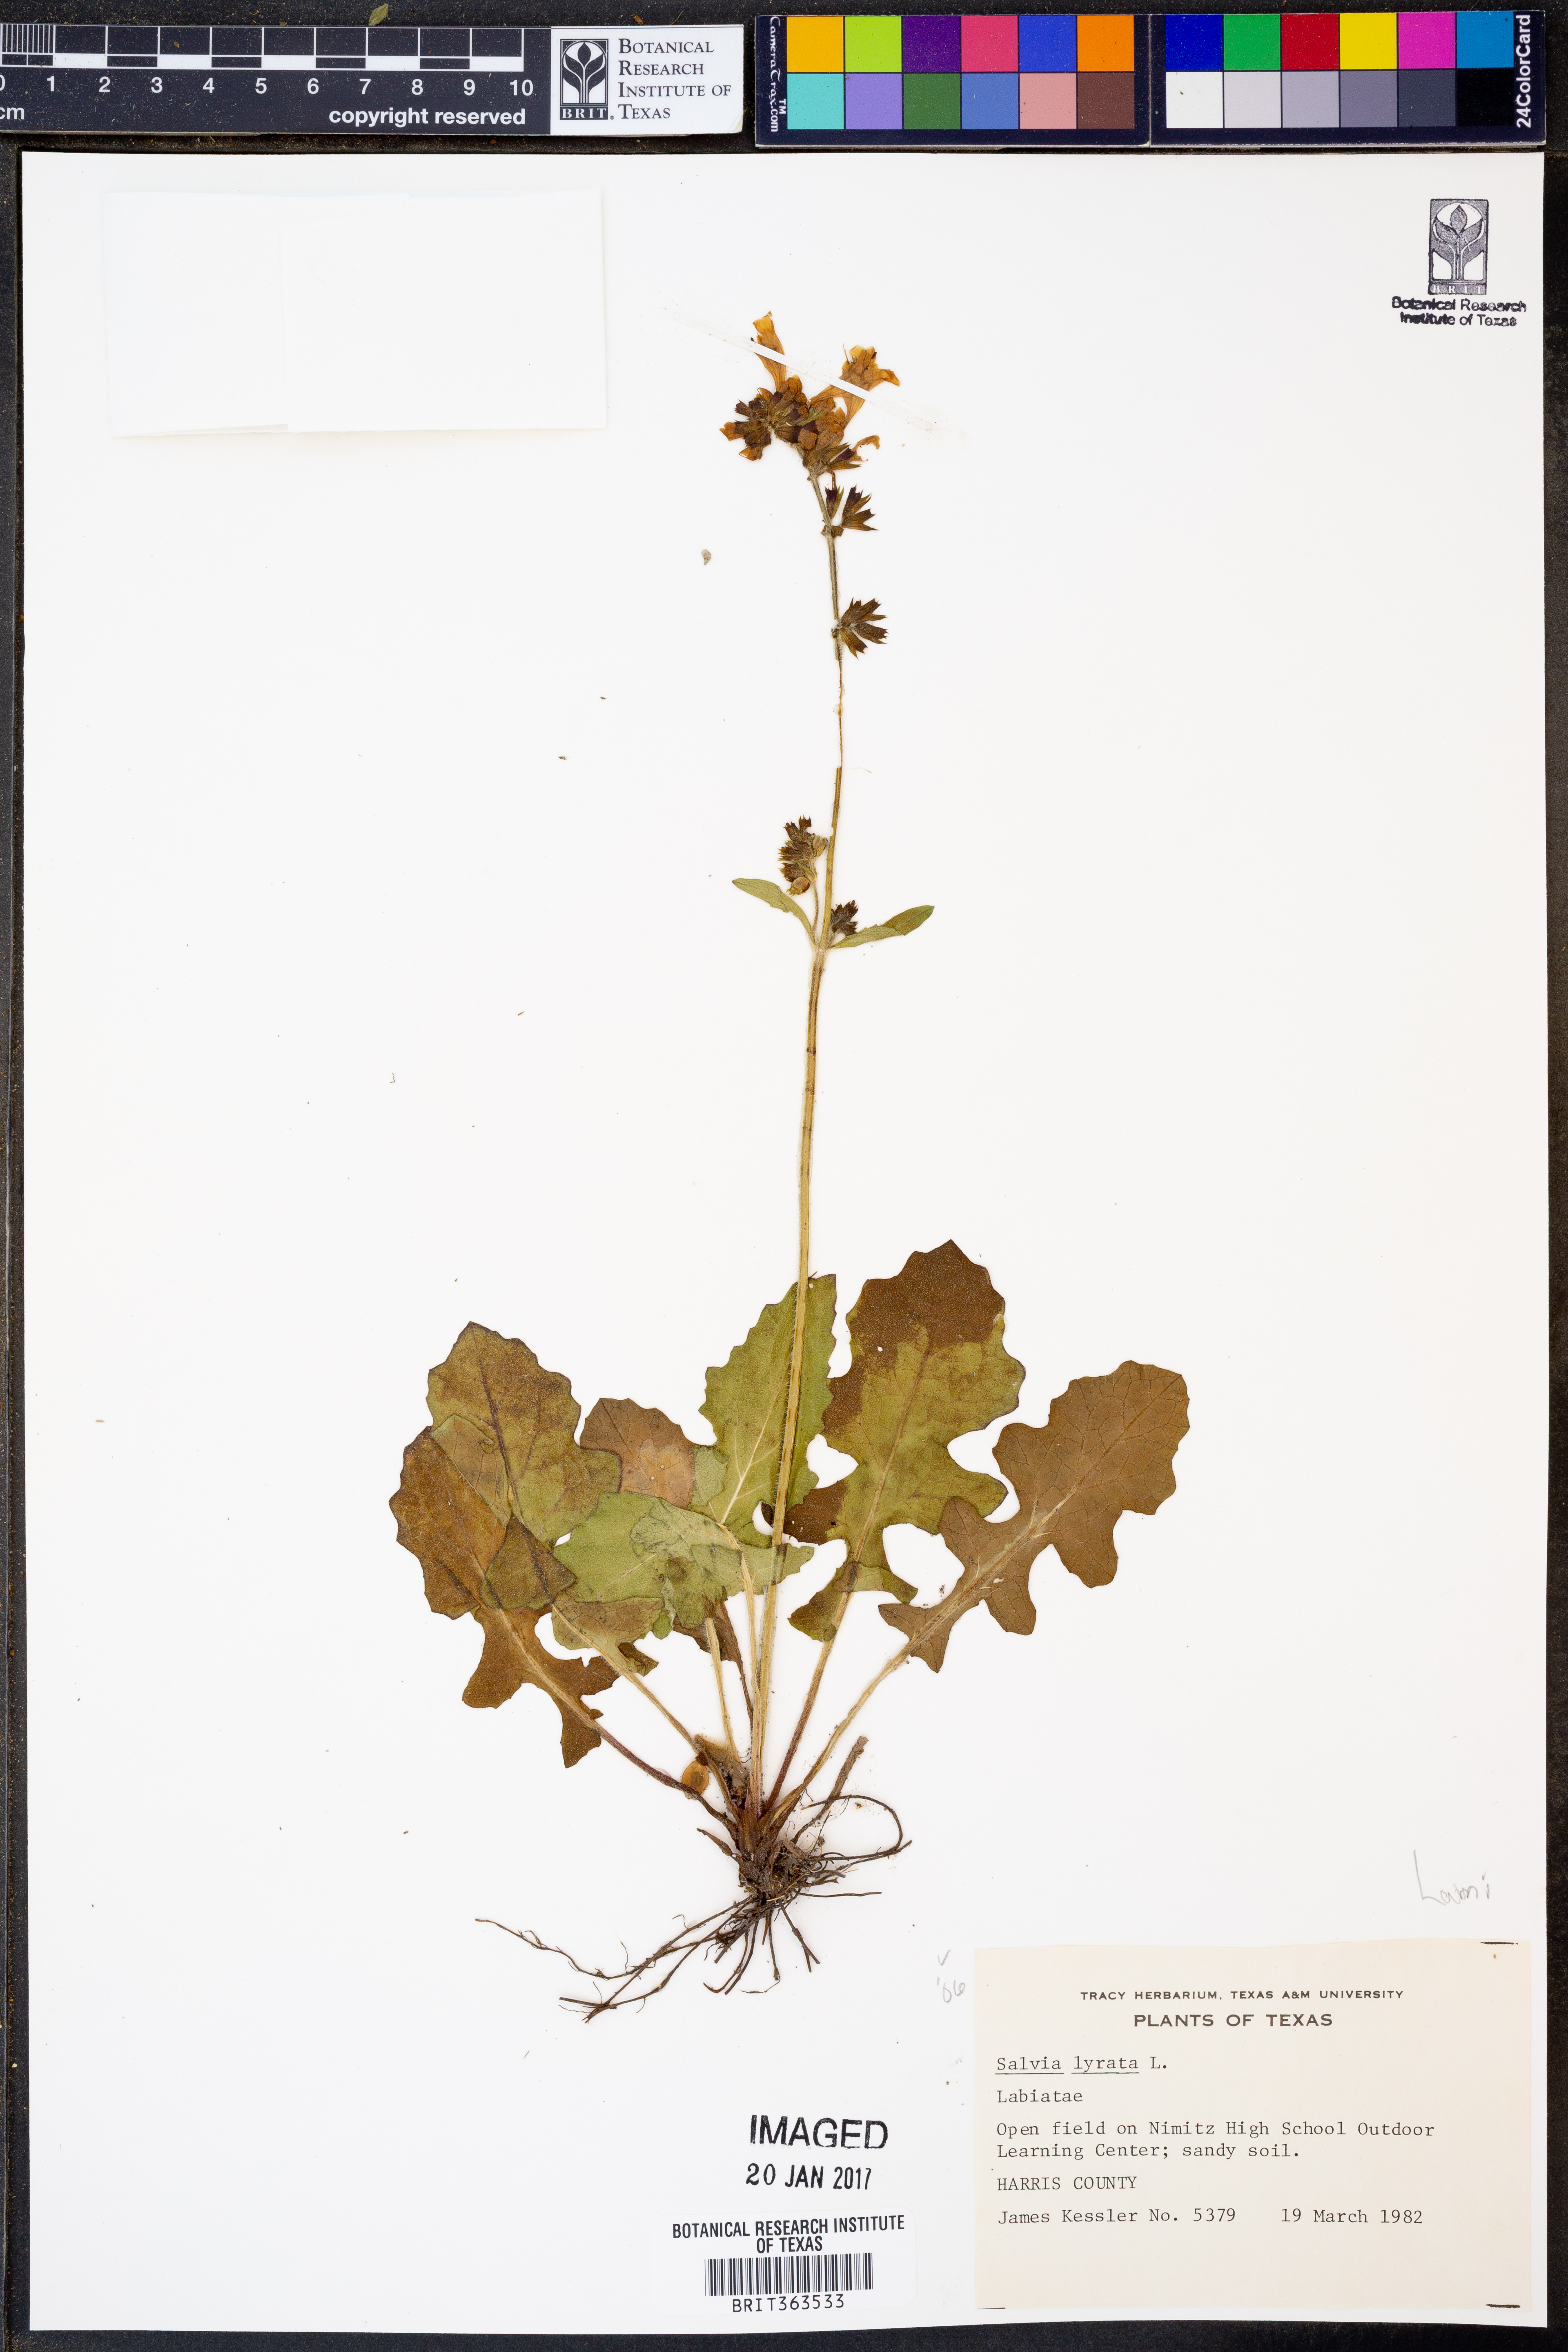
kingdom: Plantae
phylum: Tracheophyta
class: Magnoliopsida
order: Lamiales
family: Lamiaceae
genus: Salvia
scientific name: Salvia lyrata
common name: Cancerweed
